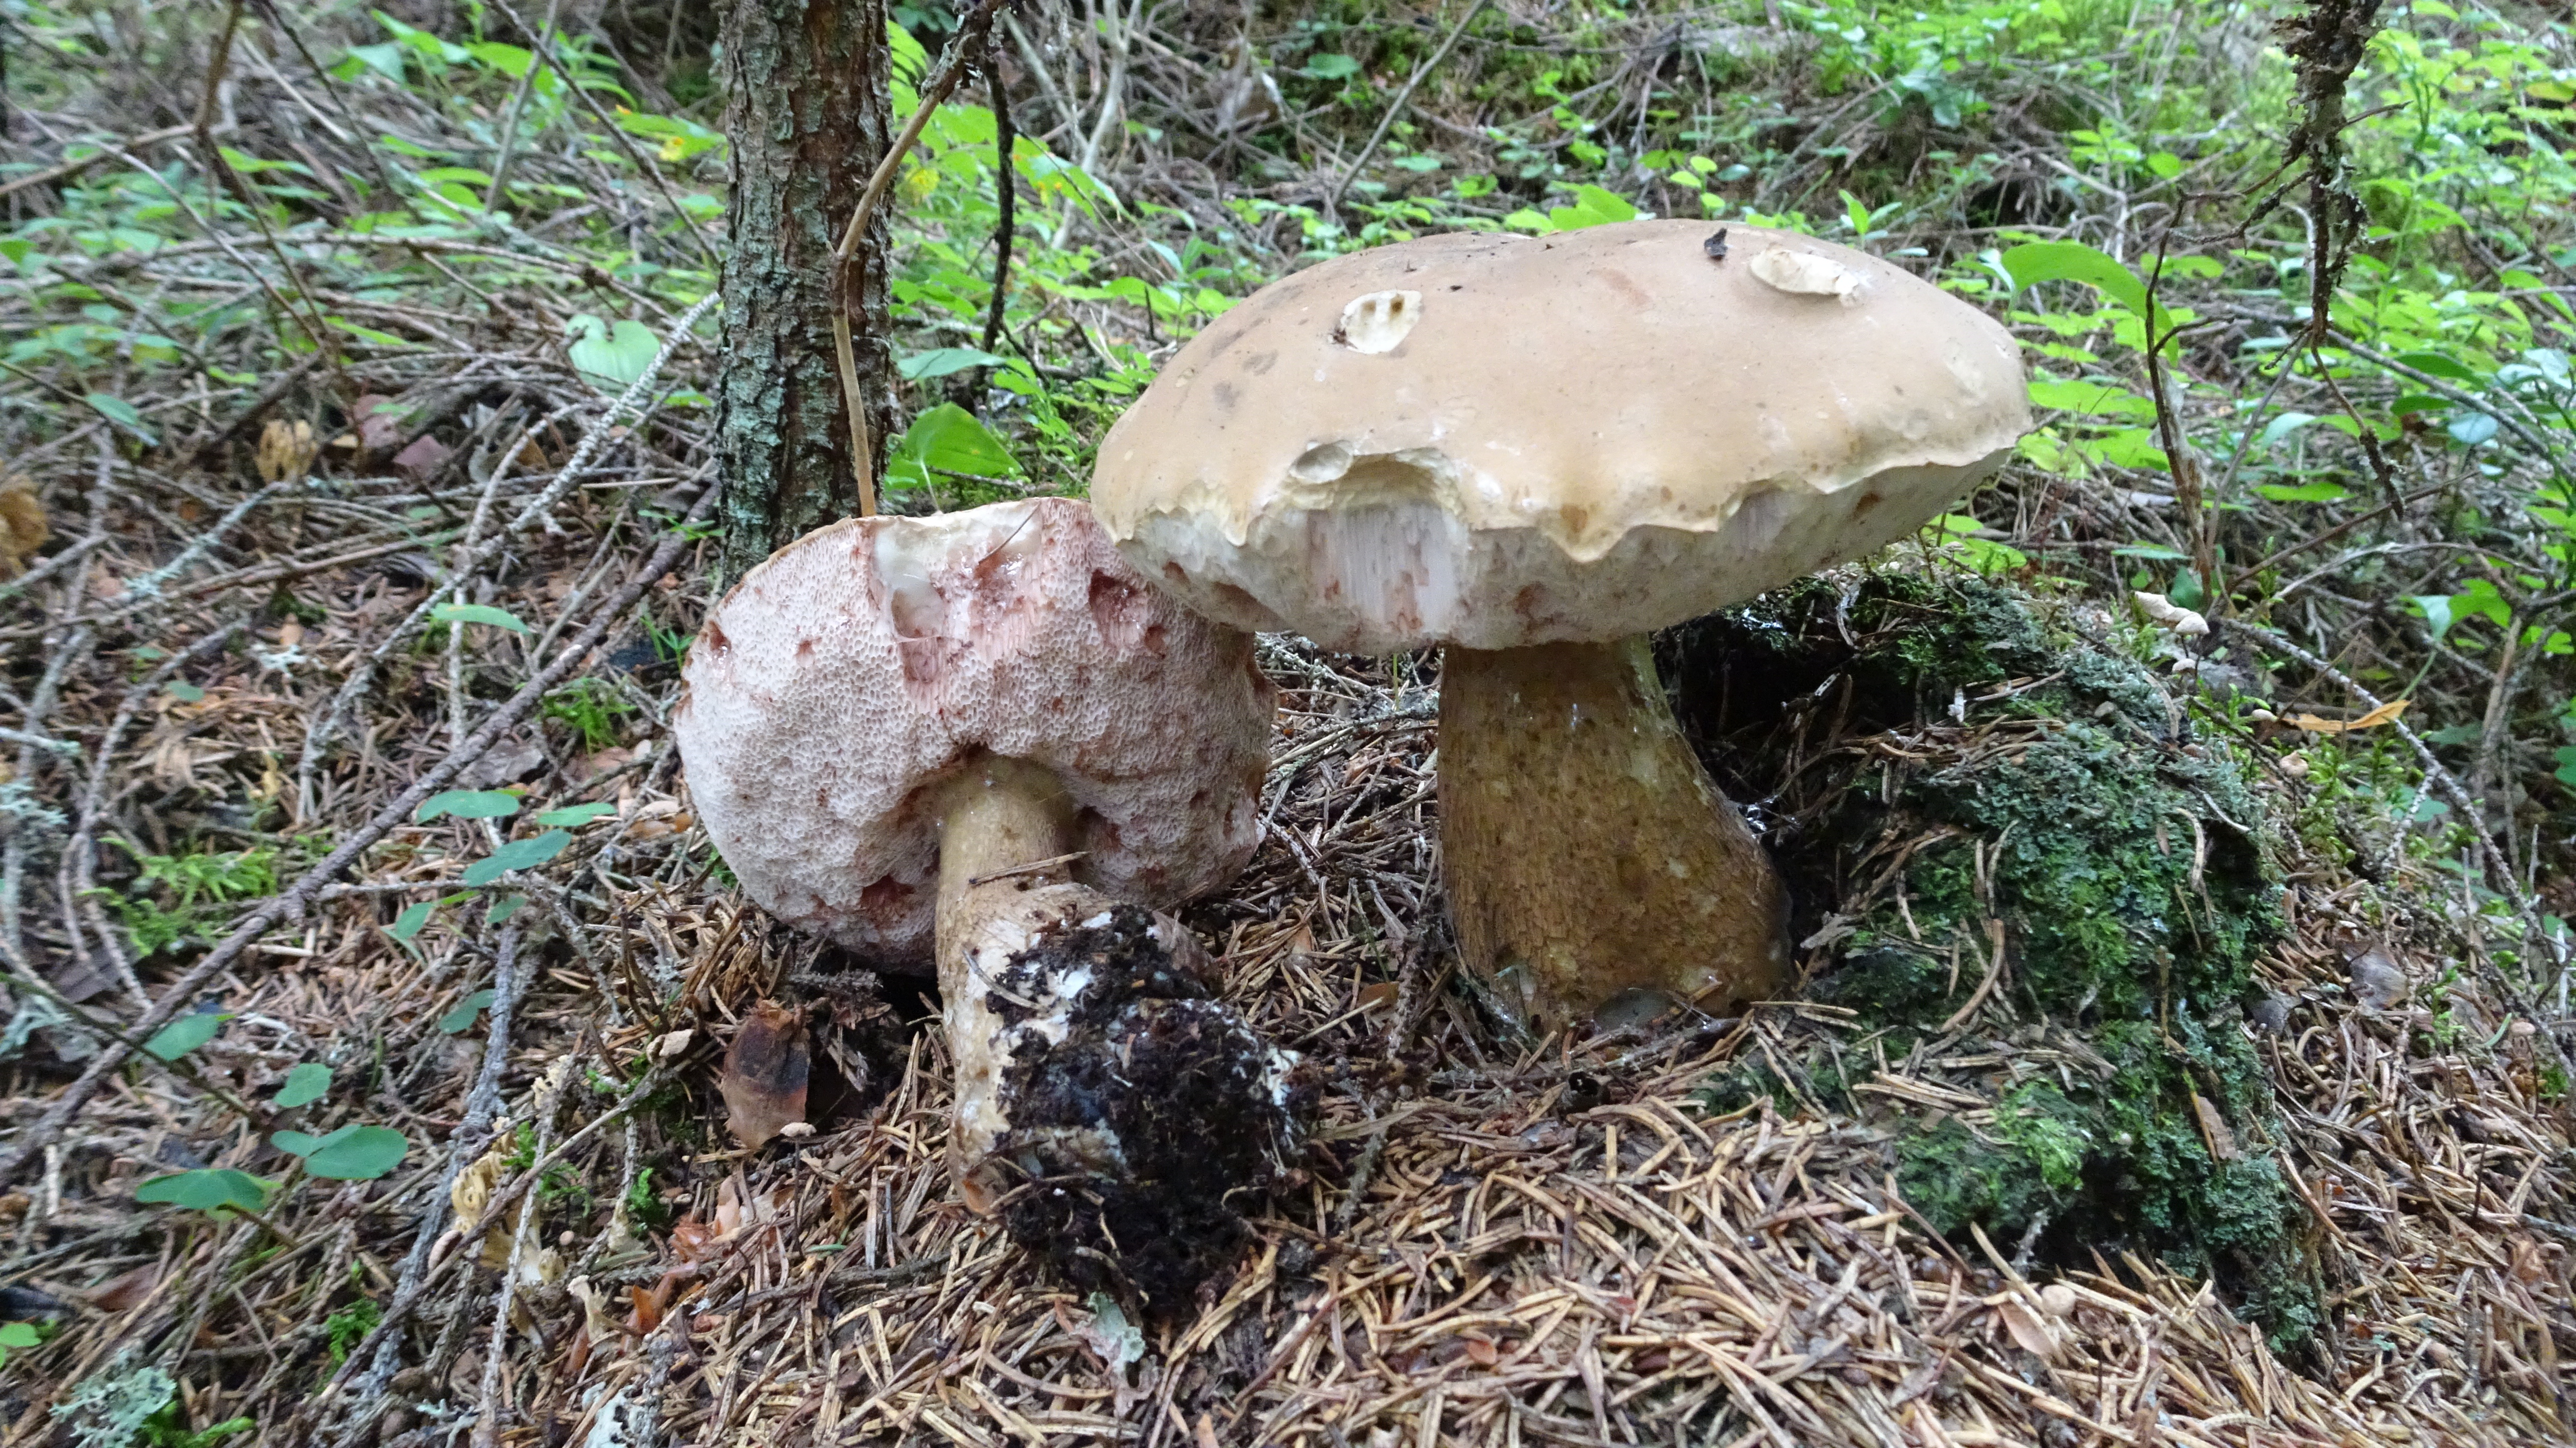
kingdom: Fungi
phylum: Basidiomycota
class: Agaricomycetes
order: Boletales
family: Boletaceae
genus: Tylopilus
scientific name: Tylopilus felleus
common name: Bitter bolete
